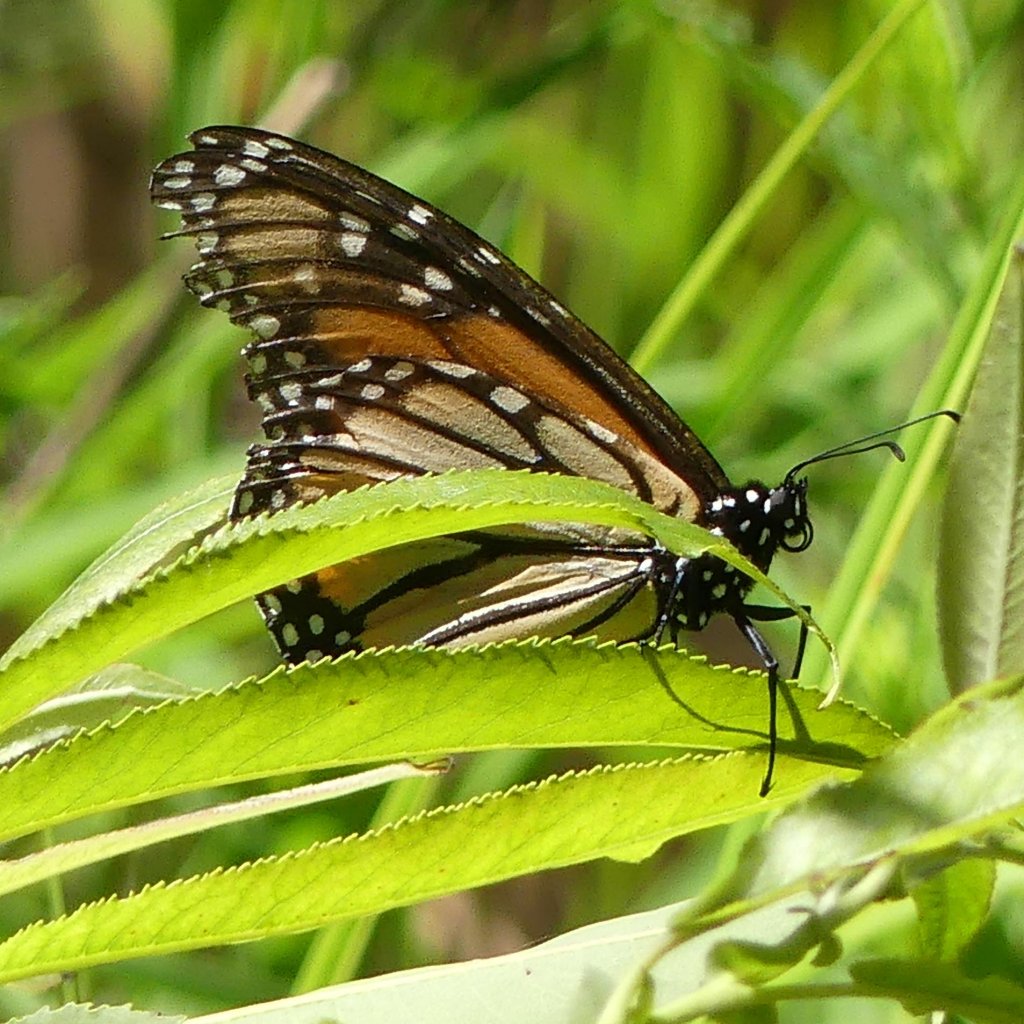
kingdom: Animalia
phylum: Arthropoda
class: Insecta
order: Lepidoptera
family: Nymphalidae
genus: Danaus
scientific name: Danaus plexippus
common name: Monarch
